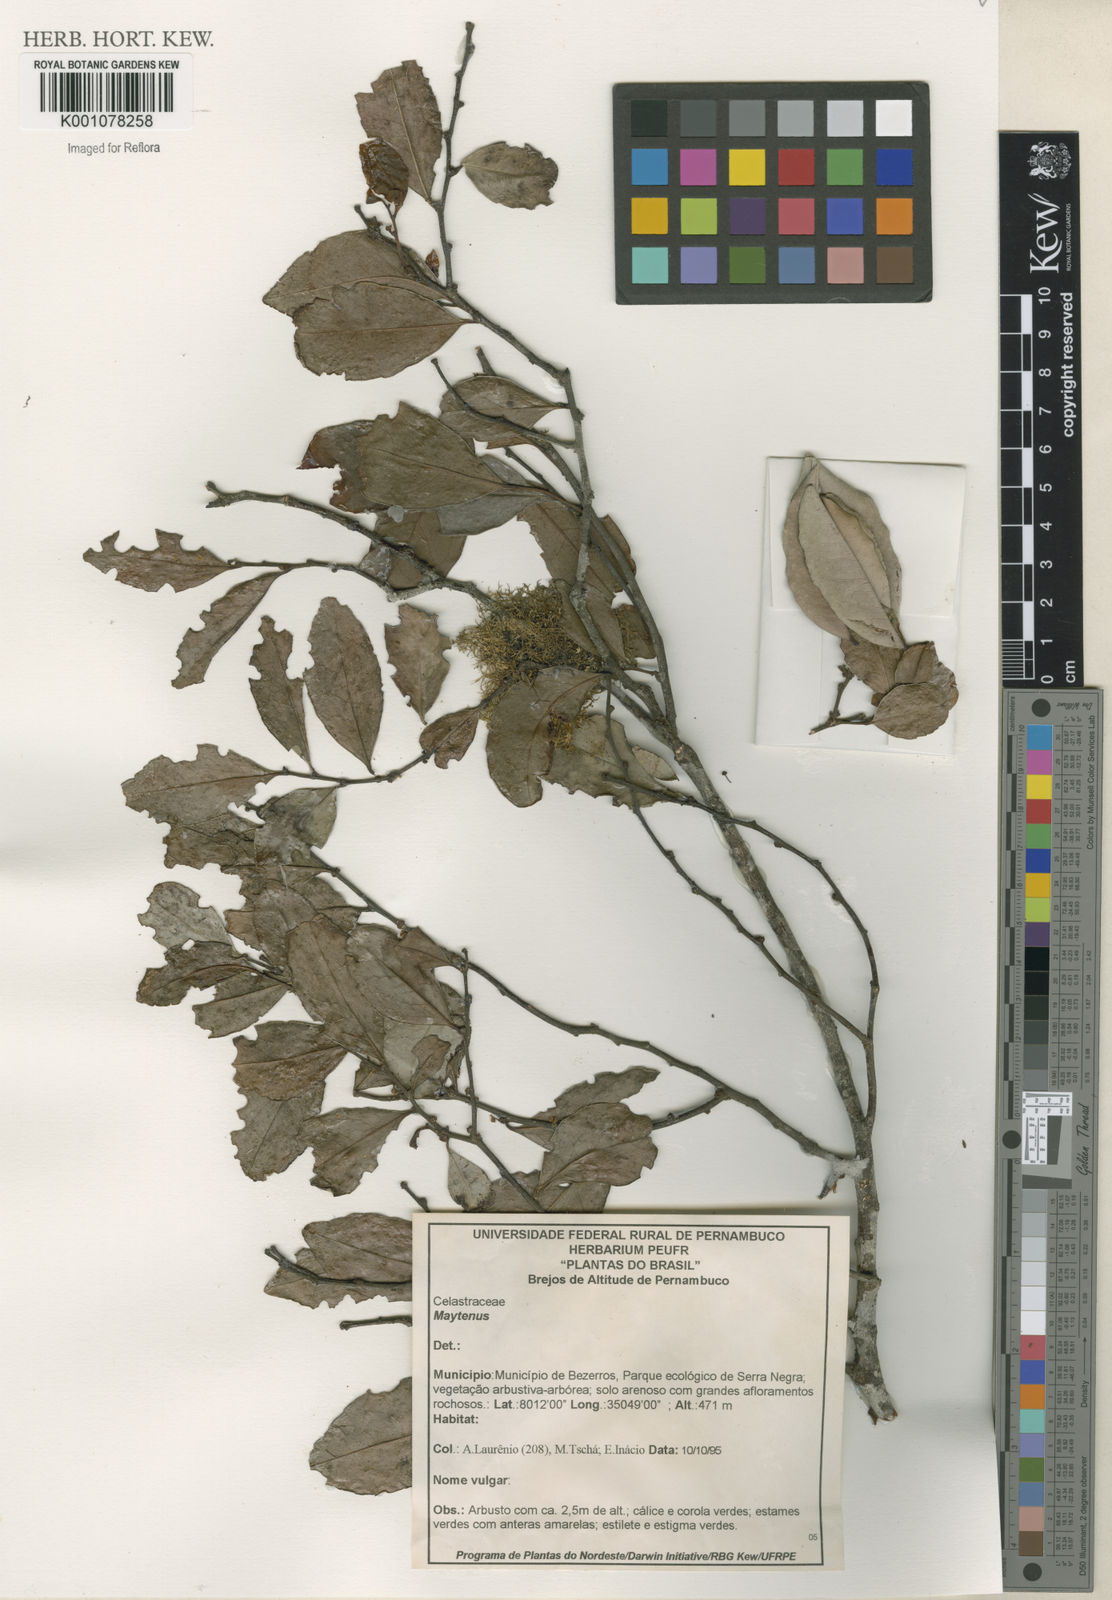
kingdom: Plantae
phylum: Tracheophyta
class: Magnoliopsida
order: Celastrales
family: Celastraceae
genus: Maytenus
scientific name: Maytenus
